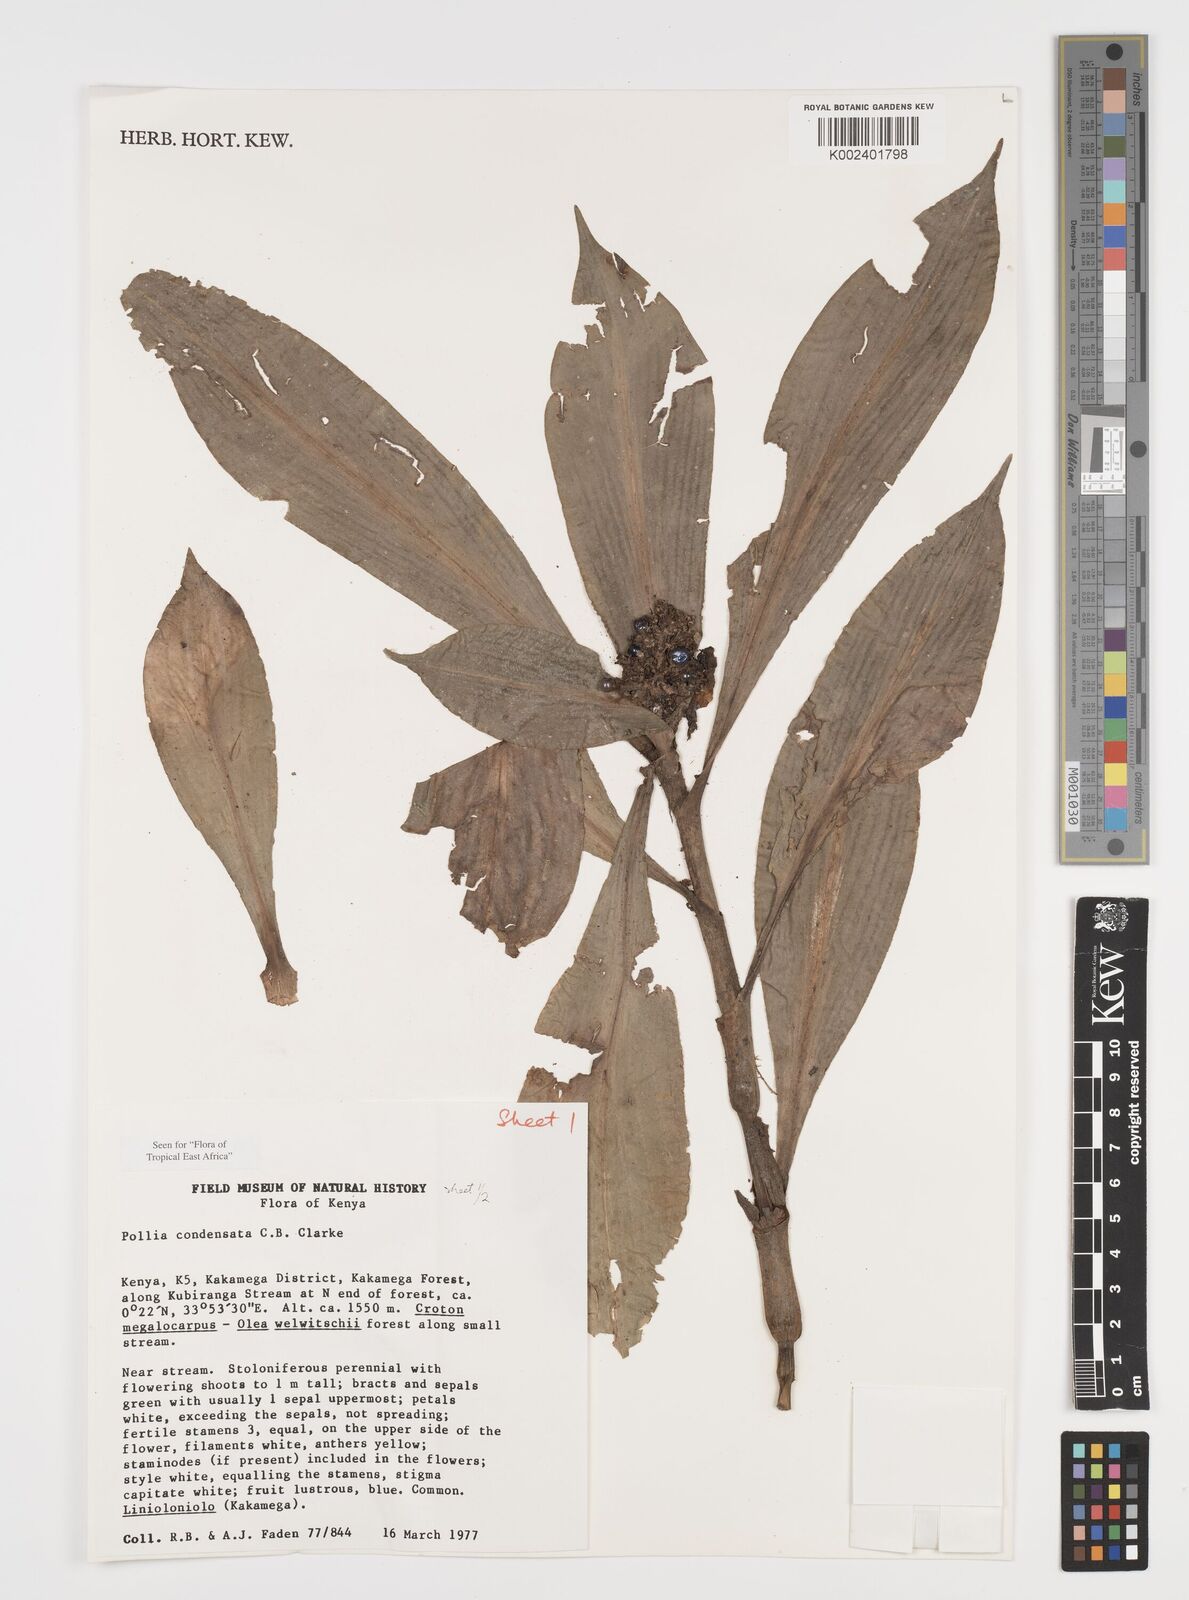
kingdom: Plantae
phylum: Tracheophyta
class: Liliopsida
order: Commelinales
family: Commelinaceae
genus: Pollia
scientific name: Pollia condensata
